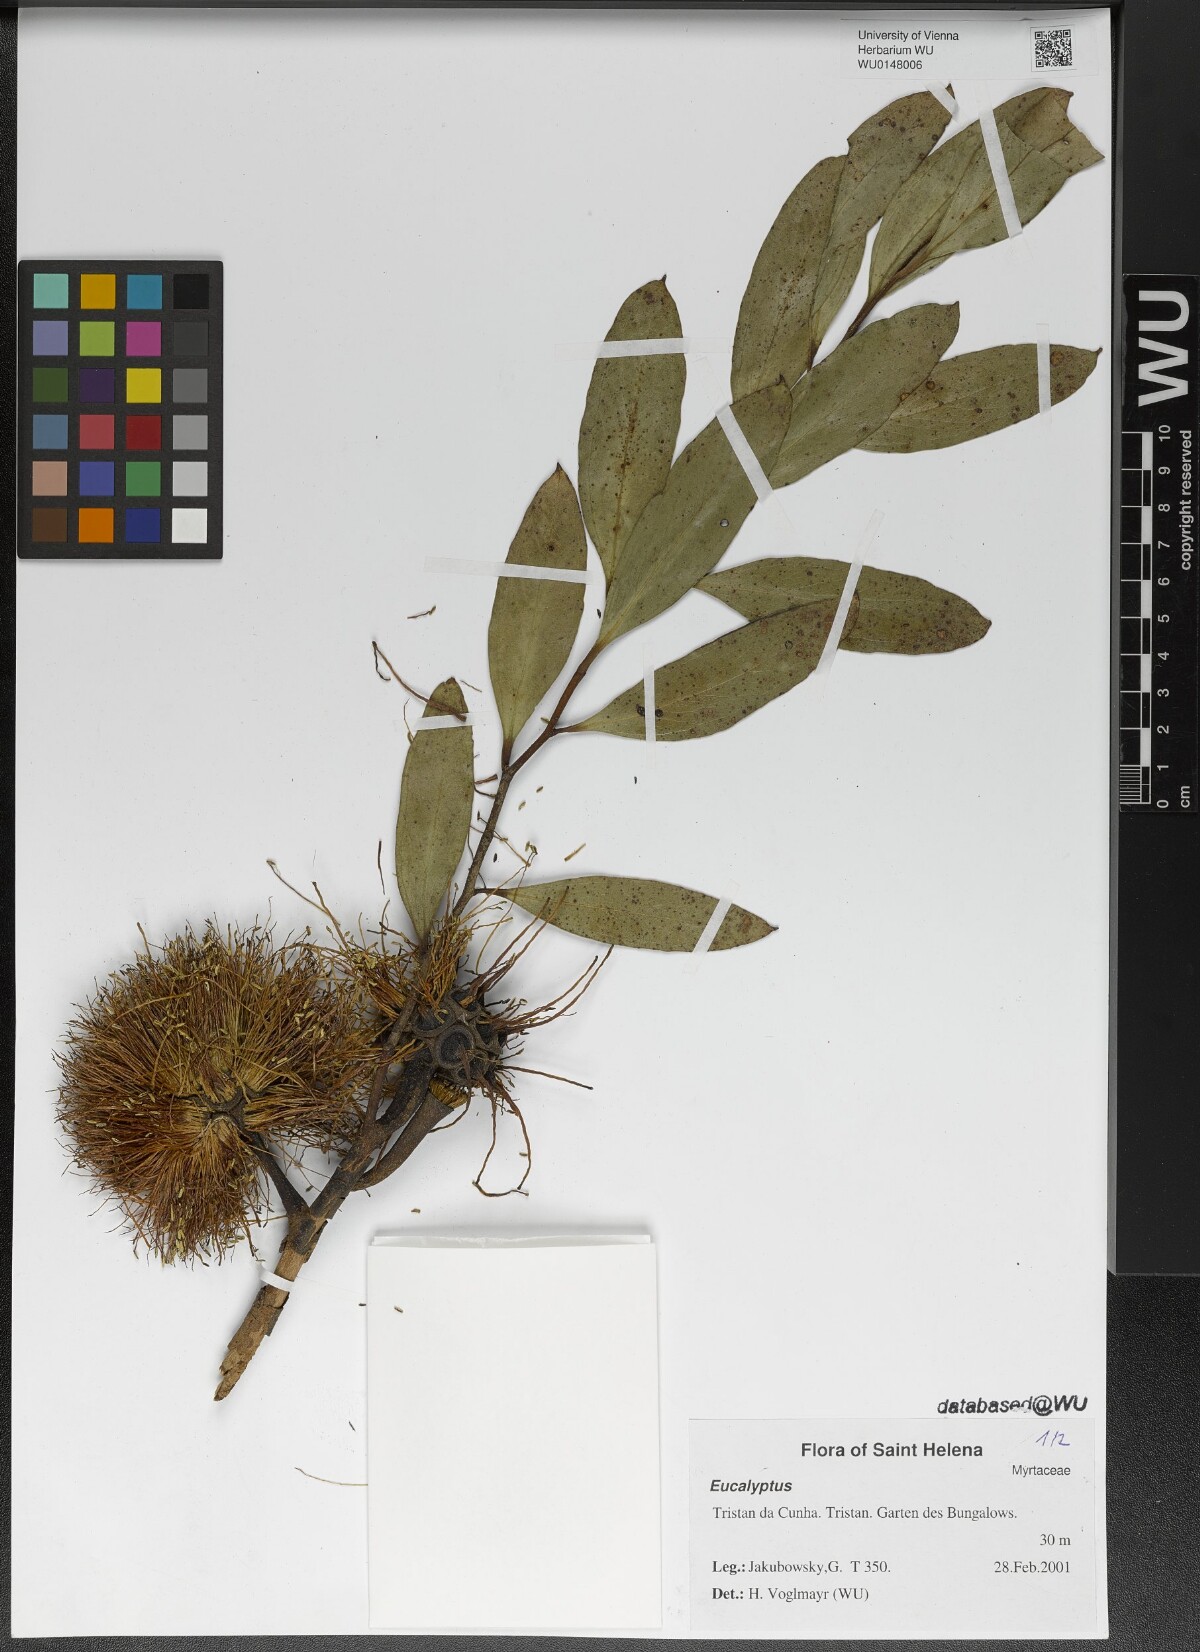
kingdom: Plantae
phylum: Tracheophyta
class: Magnoliopsida
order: Myrtales
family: Myrtaceae
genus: Eucalyptus
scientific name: Eucalyptus
